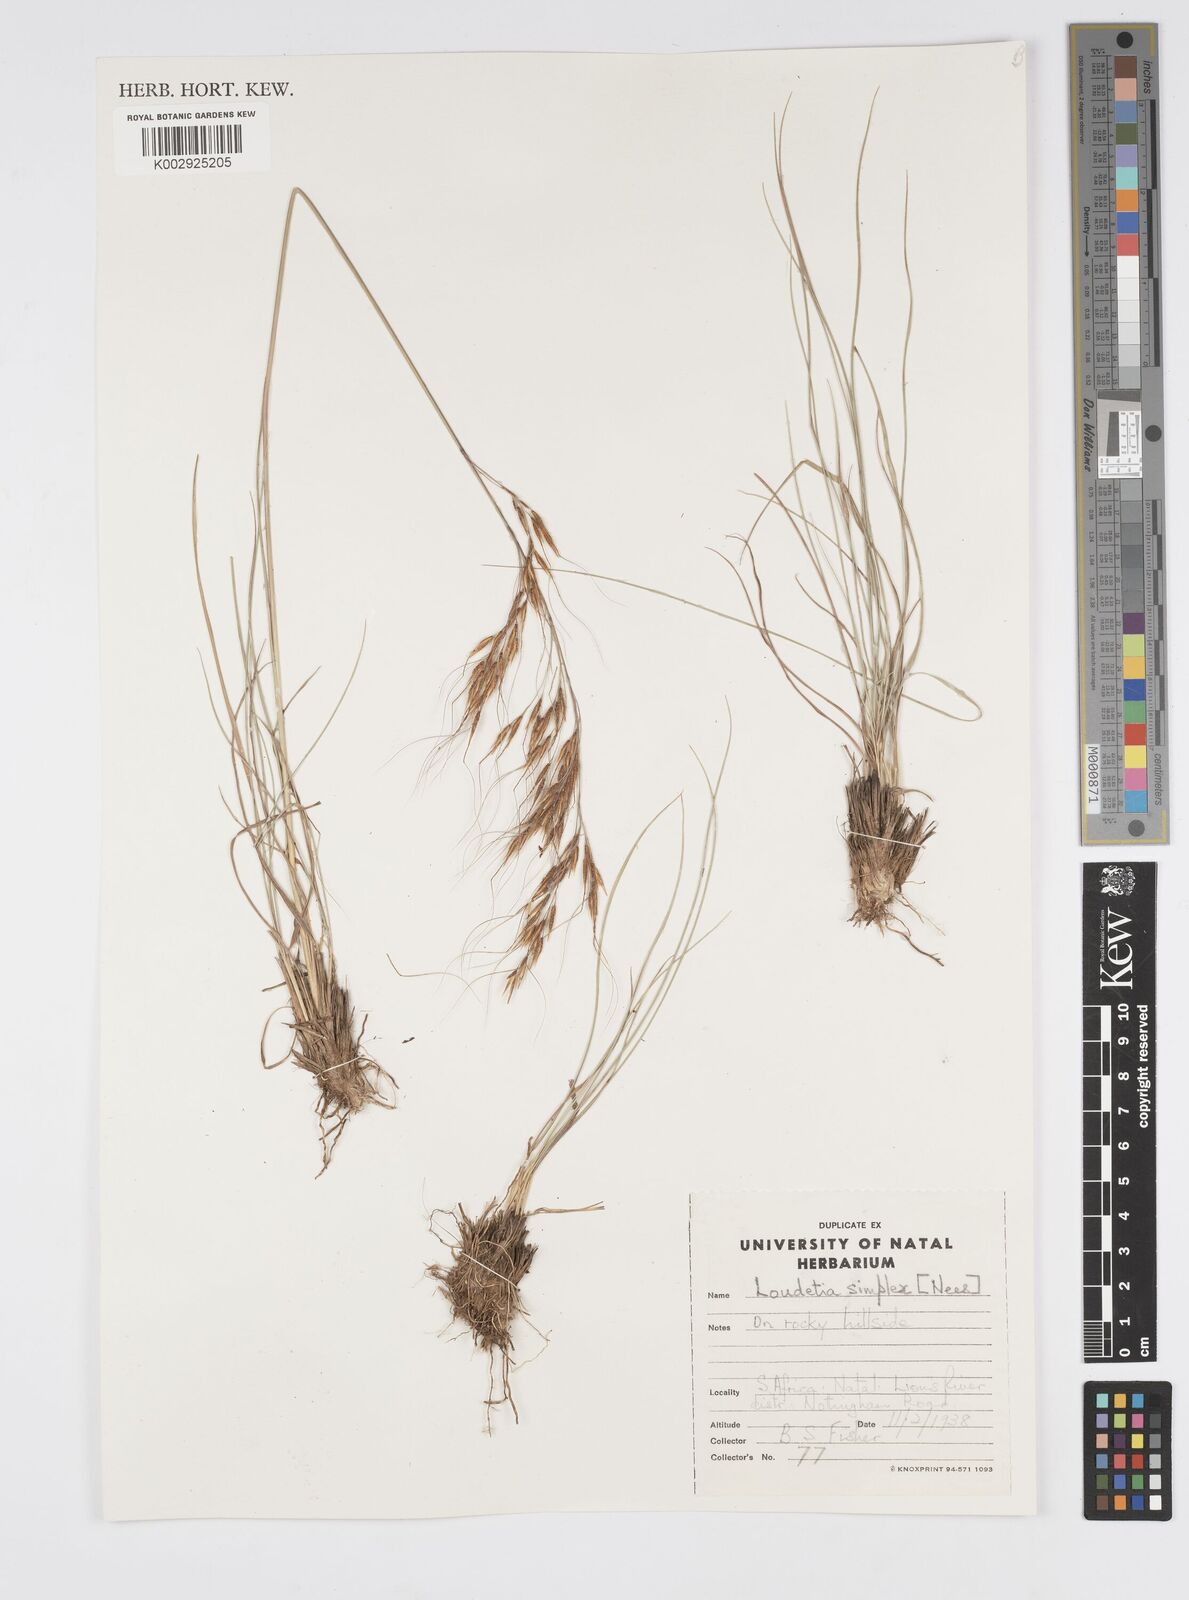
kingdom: Plantae
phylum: Tracheophyta
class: Liliopsida
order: Poales
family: Poaceae
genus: Loudetia
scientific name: Loudetia simplex
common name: Common russet grass
